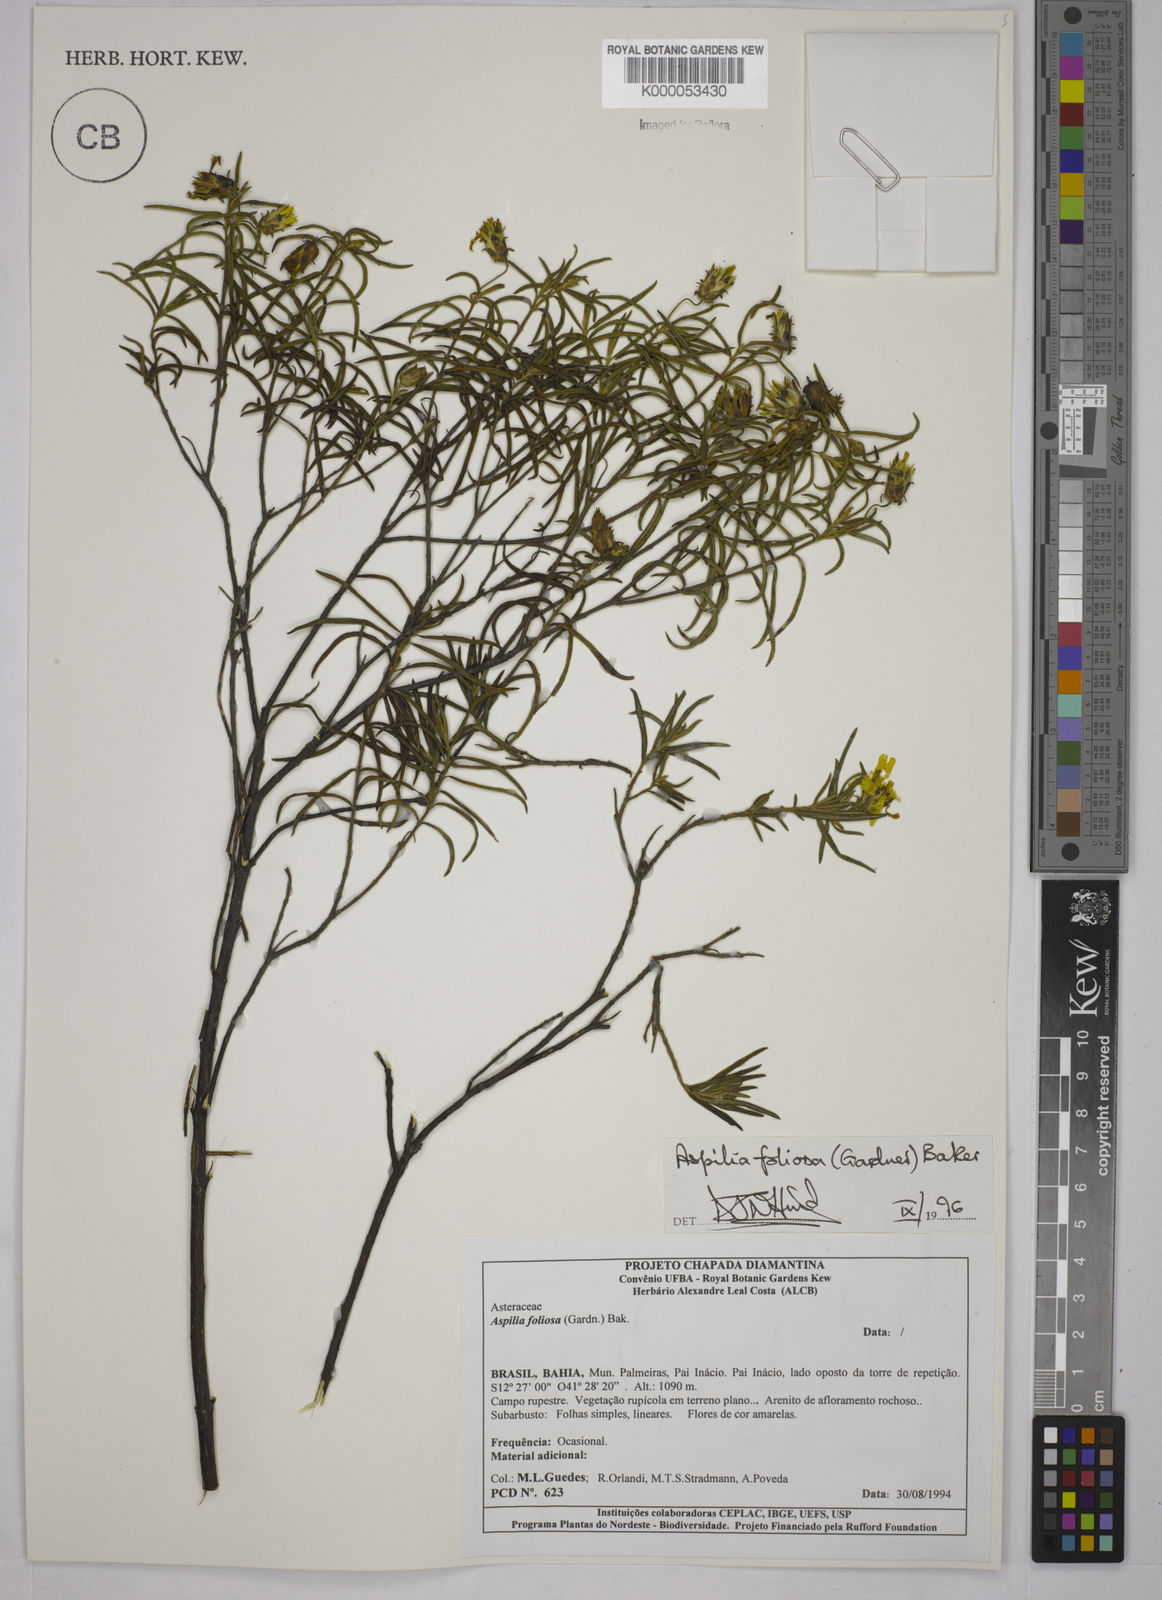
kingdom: Plantae
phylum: Tracheophyta
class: Magnoliopsida
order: Asterales
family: Asteraceae
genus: Aspilia
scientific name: Aspilia
